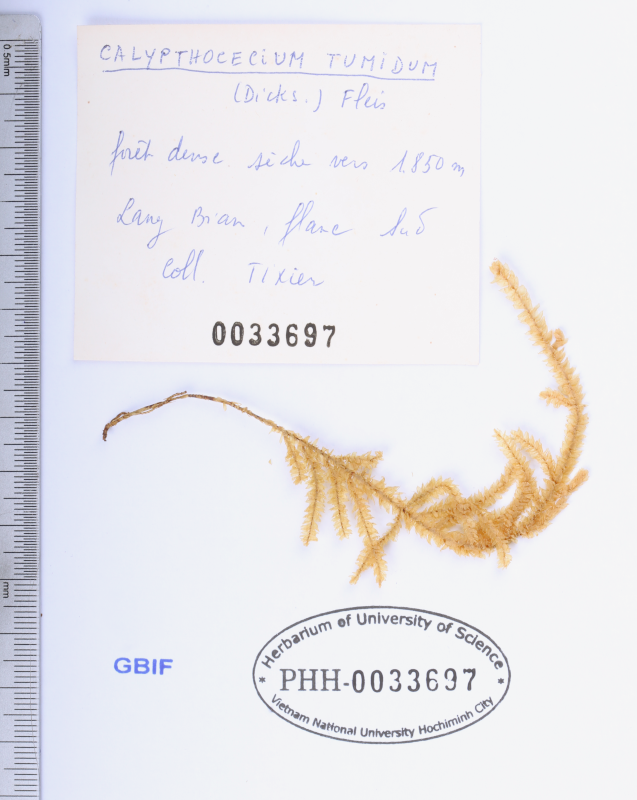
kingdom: Plantae
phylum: Bryophyta
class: Bryopsida
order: Hypnales
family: Pterobryaceae
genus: Pterobryopsis
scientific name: Pterobryopsis tumida
